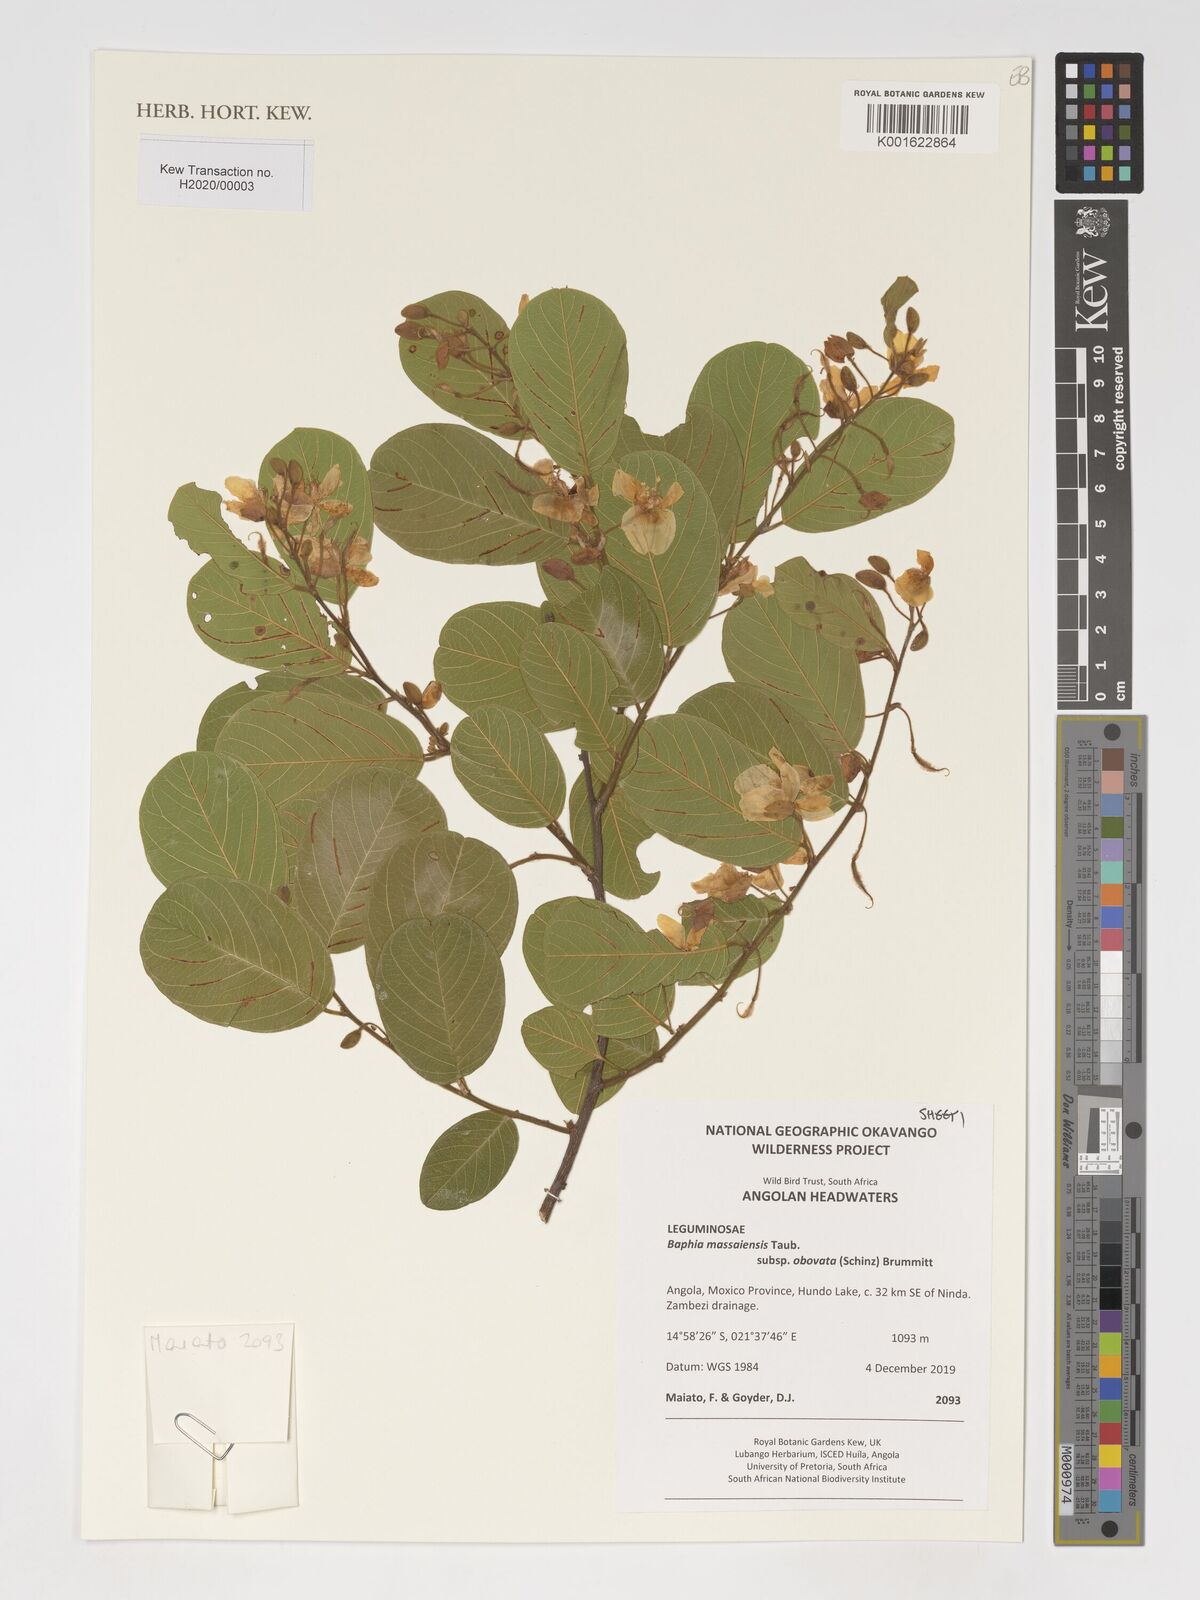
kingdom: Plantae
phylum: Tracheophyta
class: Magnoliopsida
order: Fabales
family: Fabaceae
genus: Baphia
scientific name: Baphia massaiensis
